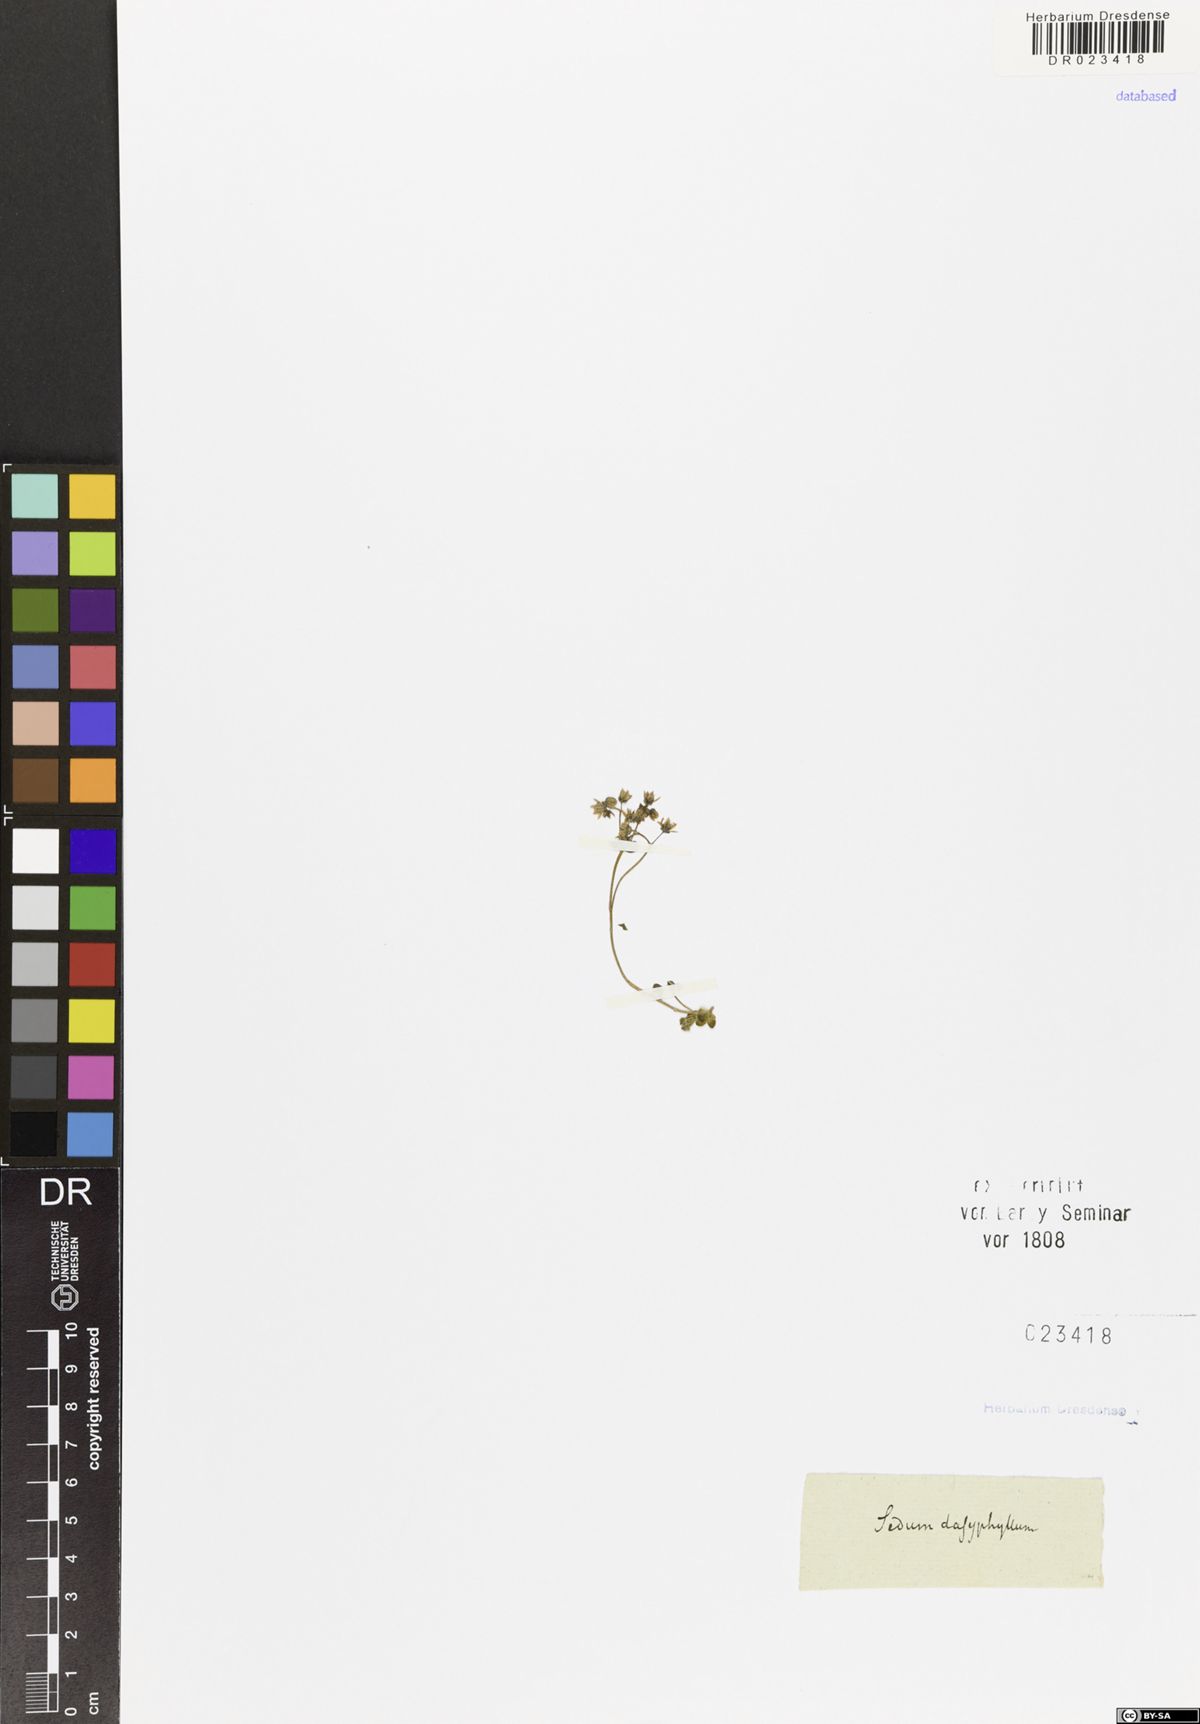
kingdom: Plantae
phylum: Tracheophyta
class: Magnoliopsida
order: Saxifragales
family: Crassulaceae
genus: Sedum
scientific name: Sedum dasyphyllum
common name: Thick-leaf stonecrop
